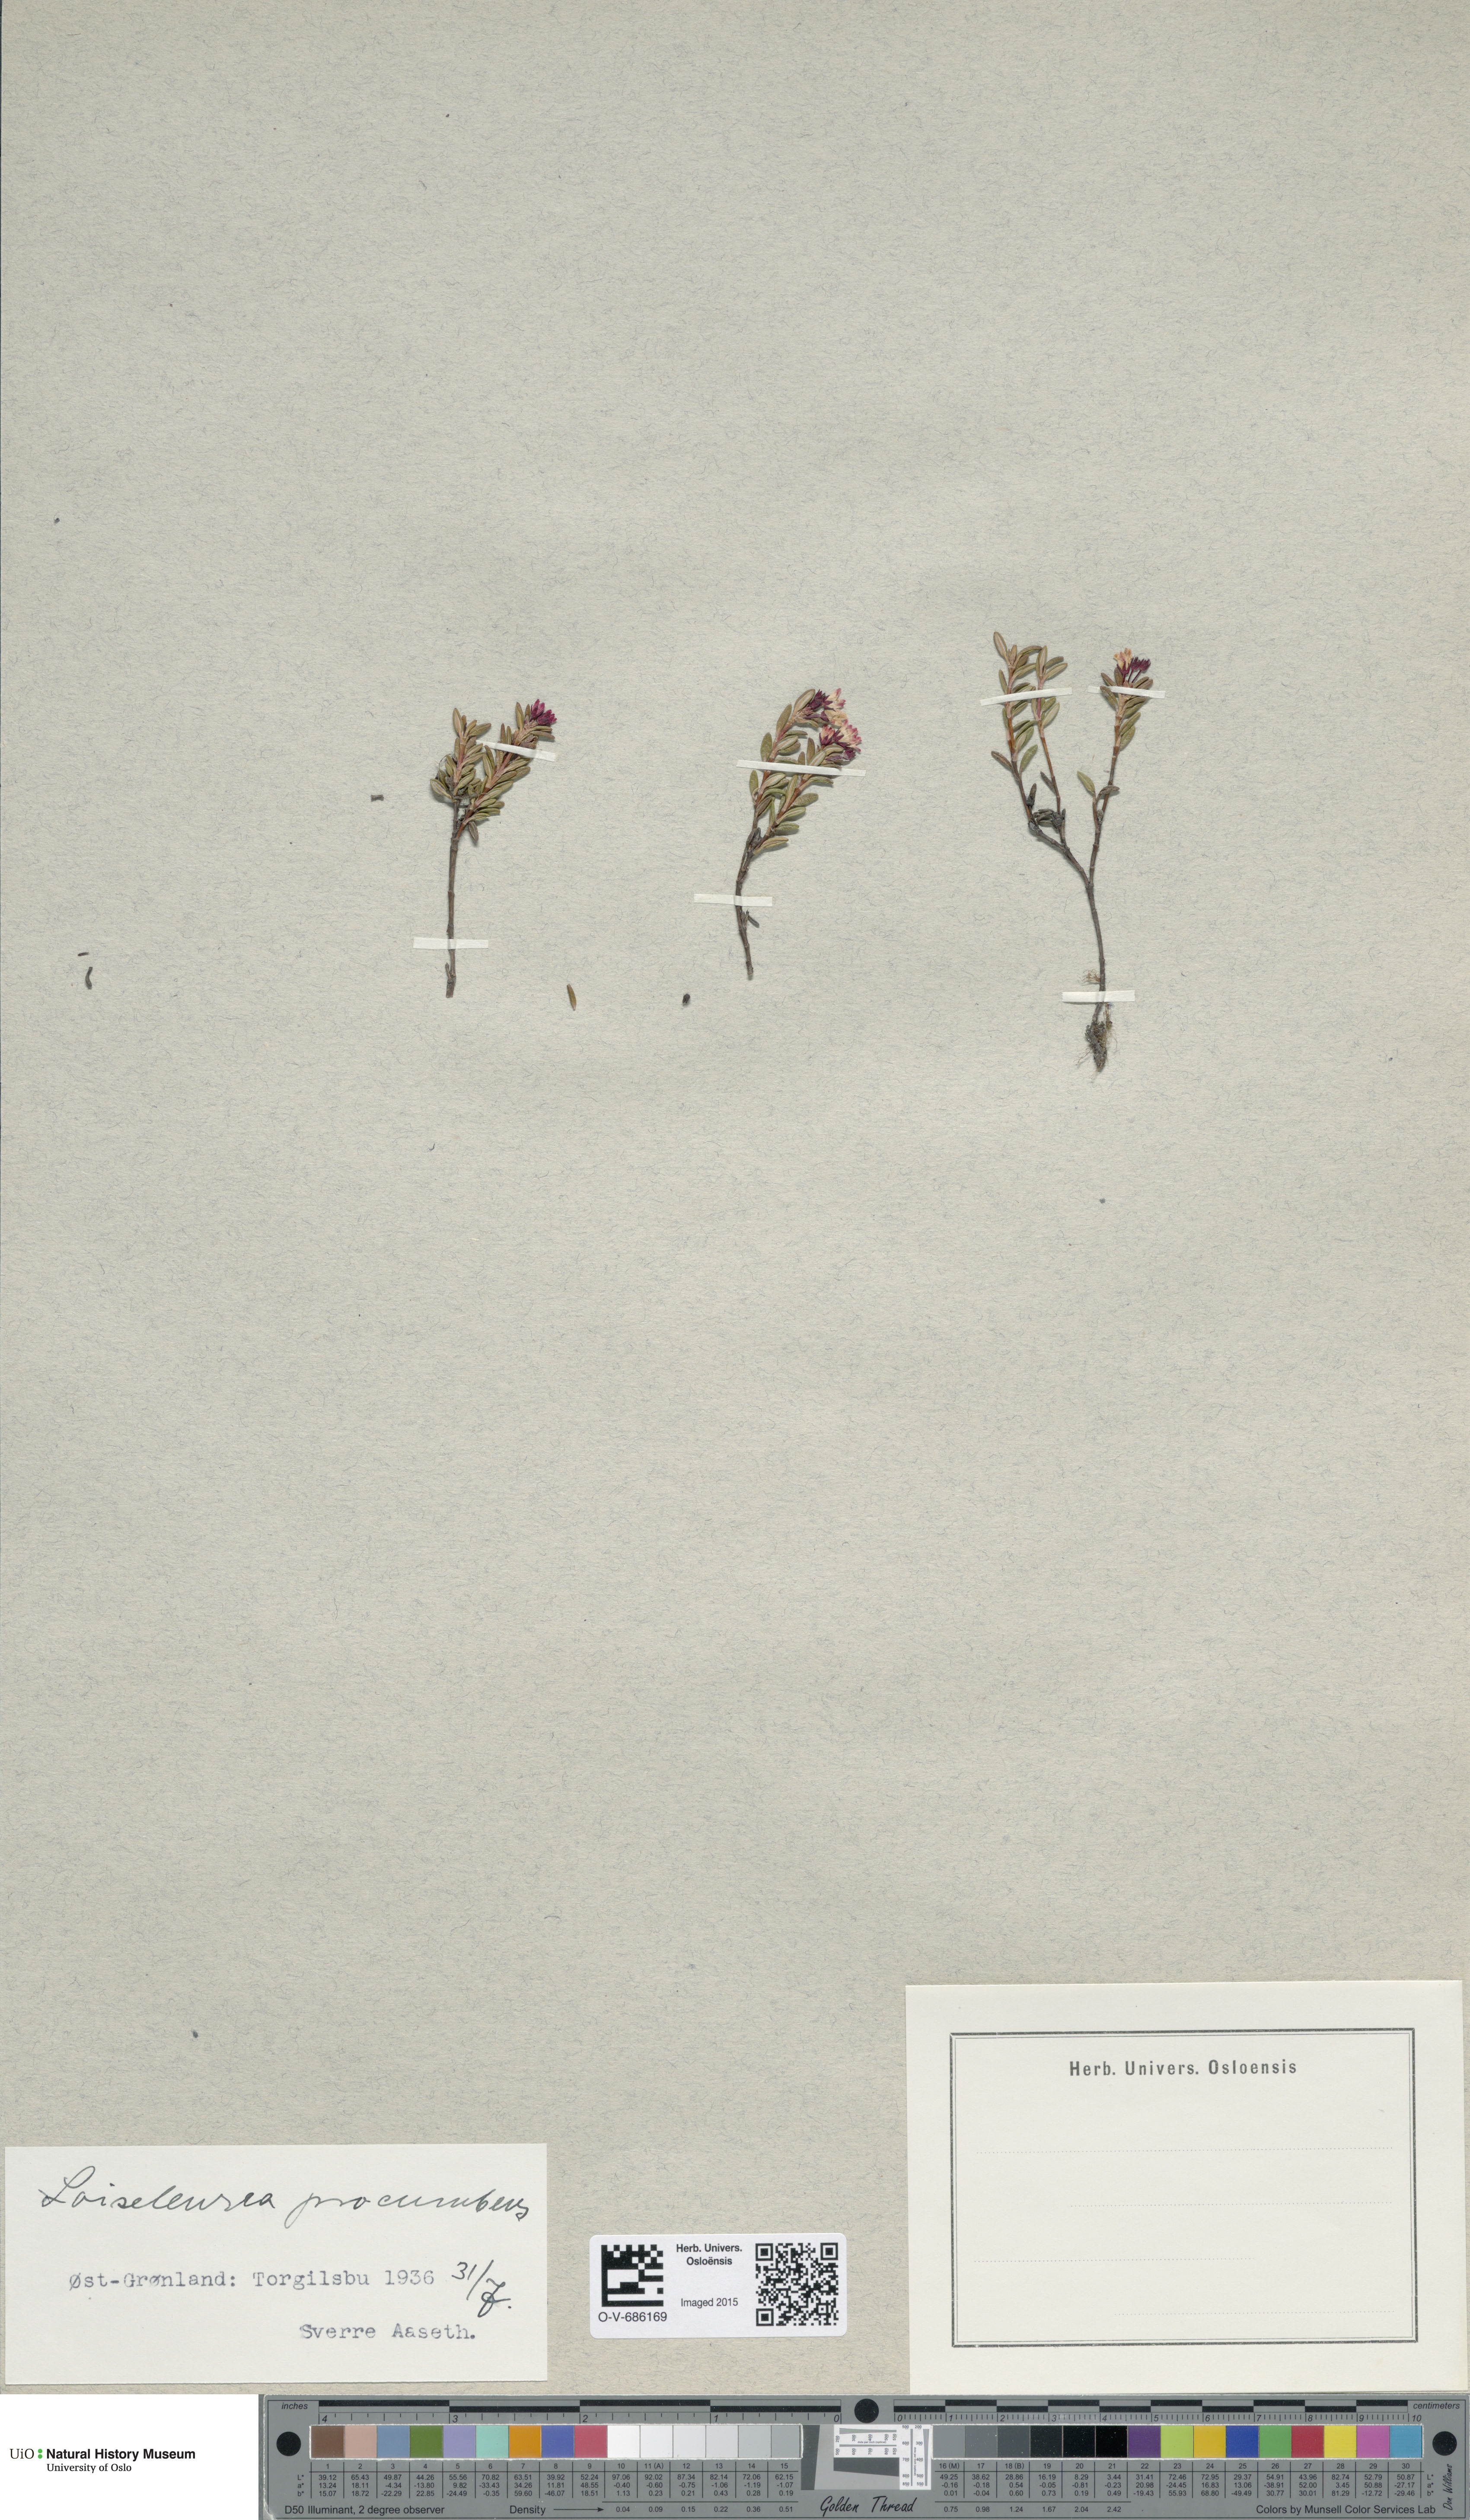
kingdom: Plantae
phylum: Tracheophyta
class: Magnoliopsida
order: Ericales
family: Ericaceae
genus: Kalmia
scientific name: Kalmia procumbens
